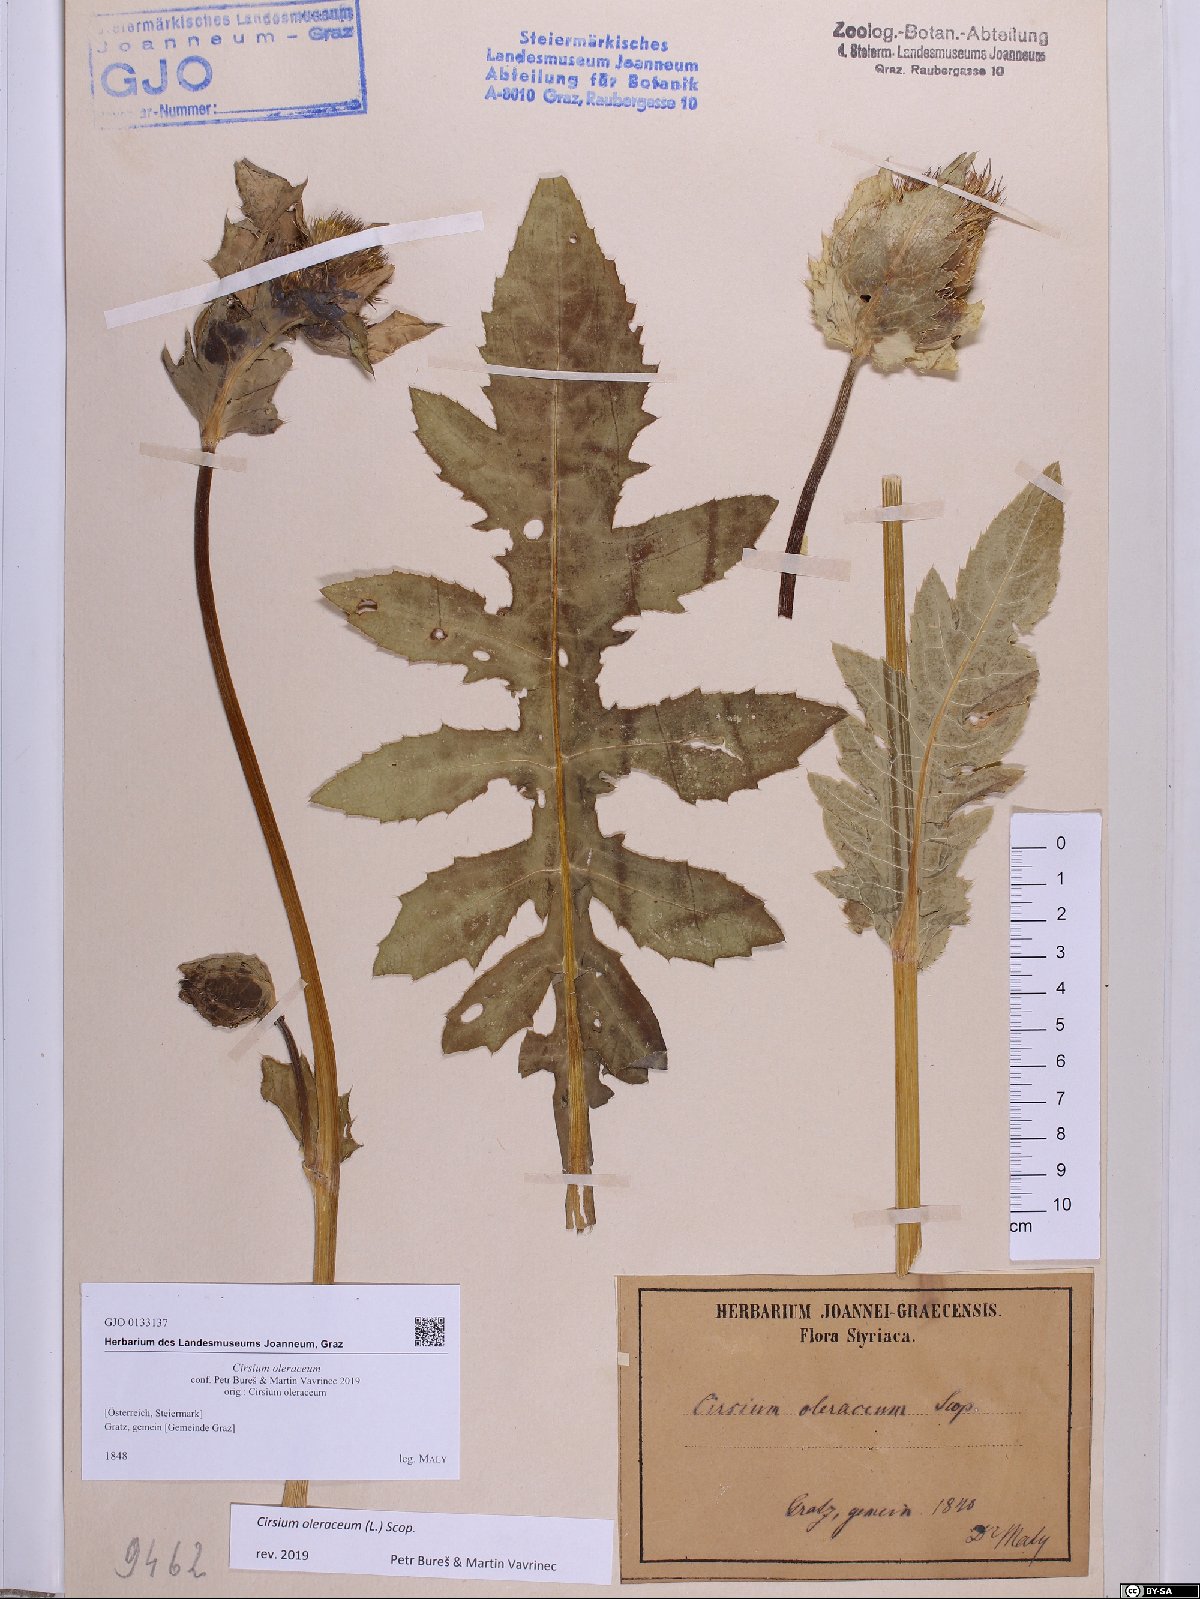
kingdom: Plantae
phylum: Tracheophyta
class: Magnoliopsida
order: Asterales
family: Asteraceae
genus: Cirsium
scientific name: Cirsium oleraceum
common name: Cabbage thistle
